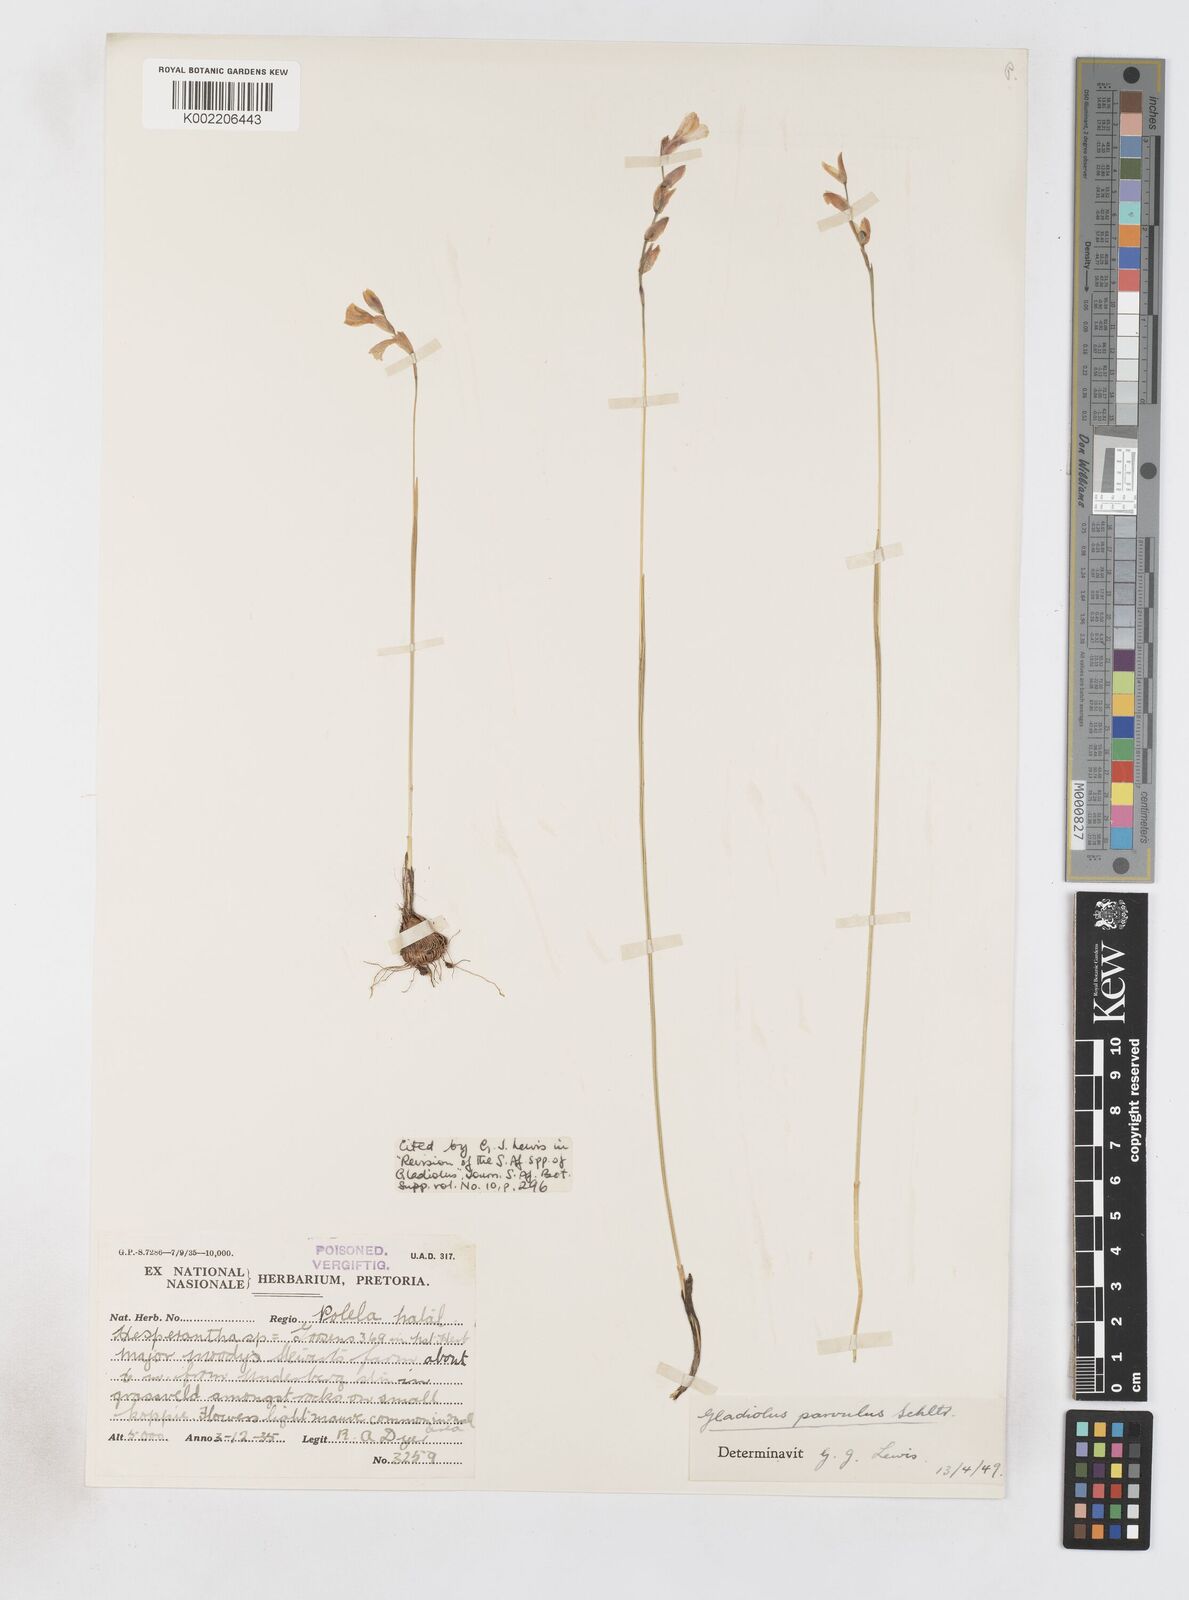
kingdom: Plantae
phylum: Tracheophyta
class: Liliopsida
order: Asparagales
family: Iridaceae
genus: Gladiolus
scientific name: Gladiolus parvulus
